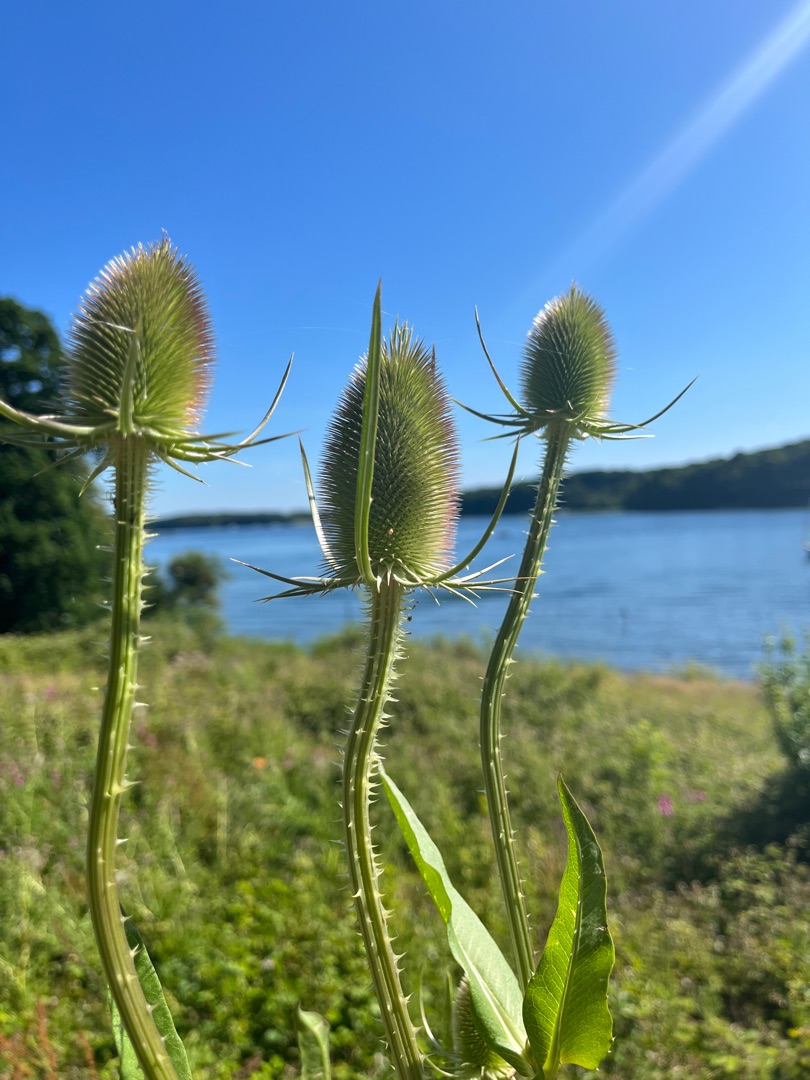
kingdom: Plantae
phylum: Tracheophyta
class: Magnoliopsida
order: Dipsacales
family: Caprifoliaceae
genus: Dipsacus
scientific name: Dipsacus fullonum
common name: Gærde-kartebolle
